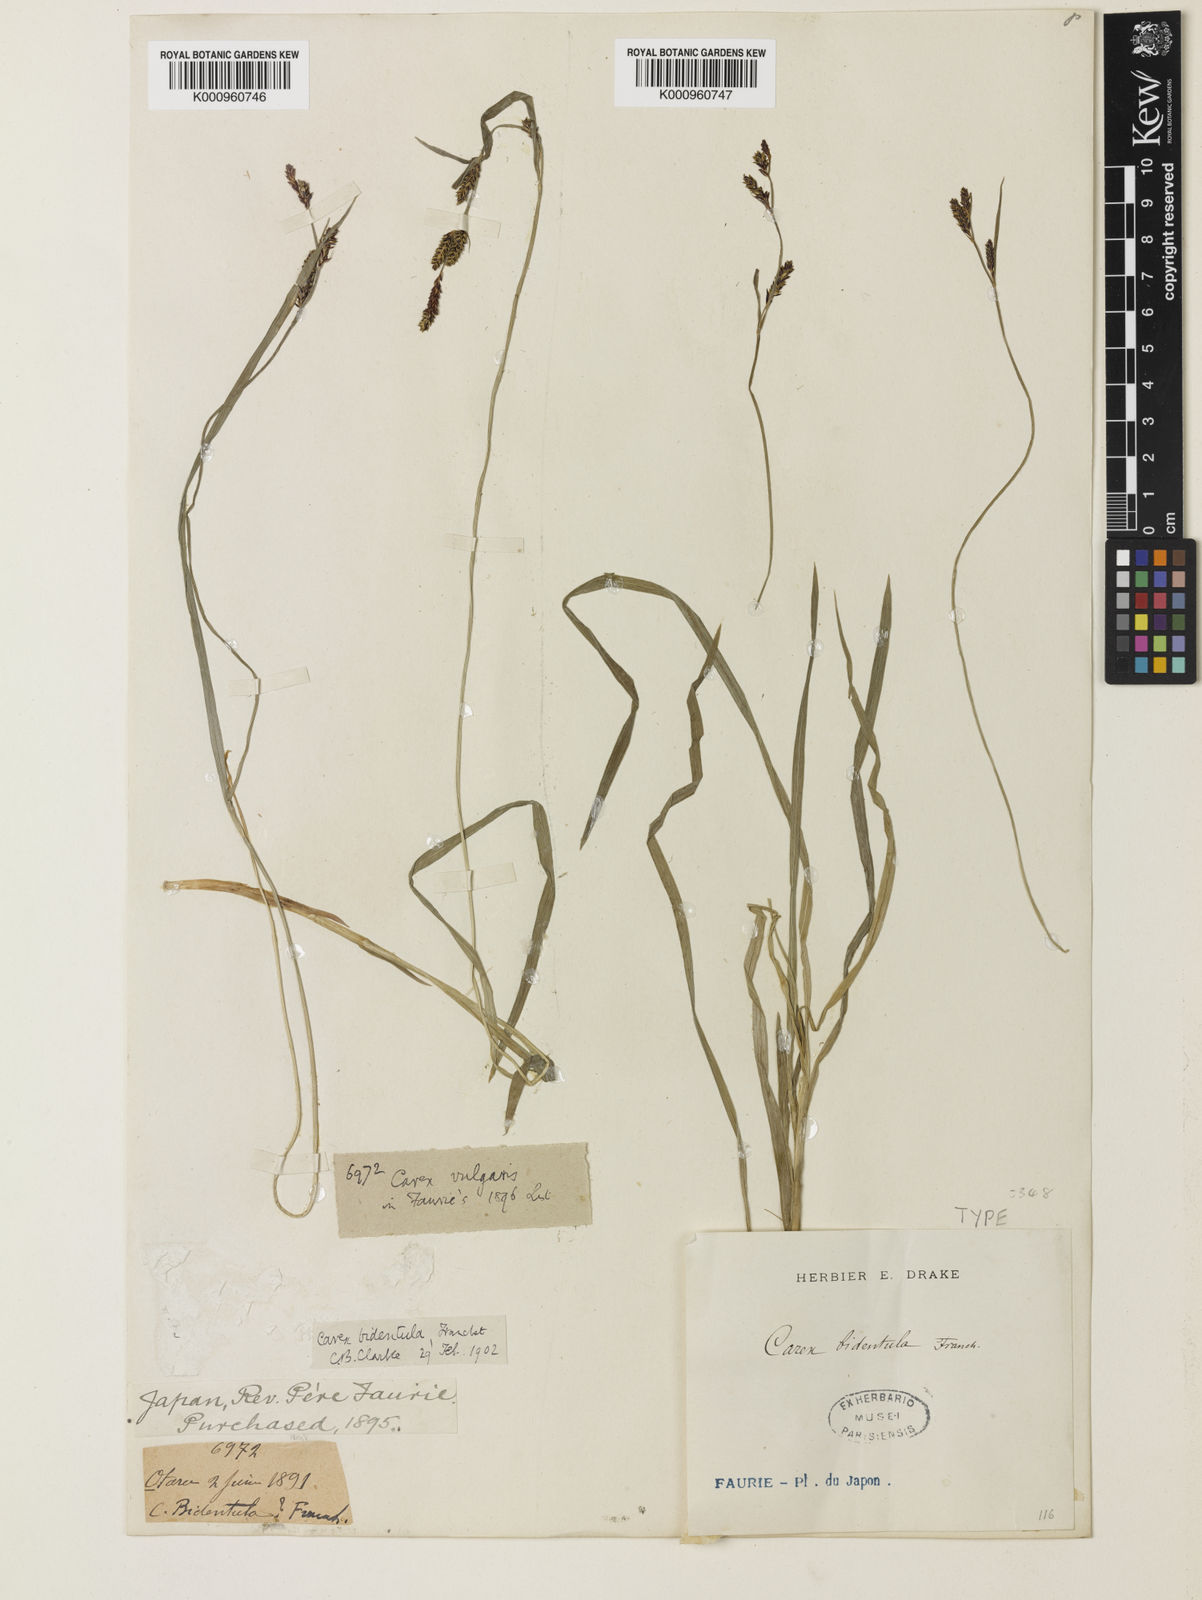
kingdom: Plantae
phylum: Tracheophyta
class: Liliopsida
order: Poales
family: Cyperaceae
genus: Carex
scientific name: Carex augustinowiczii
